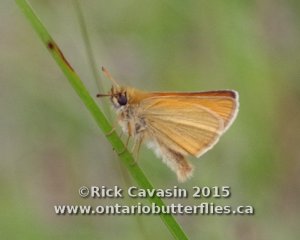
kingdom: Animalia
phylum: Arthropoda
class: Insecta
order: Lepidoptera
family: Hesperiidae
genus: Thymelicus
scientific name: Thymelicus lineola
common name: European Skipper
